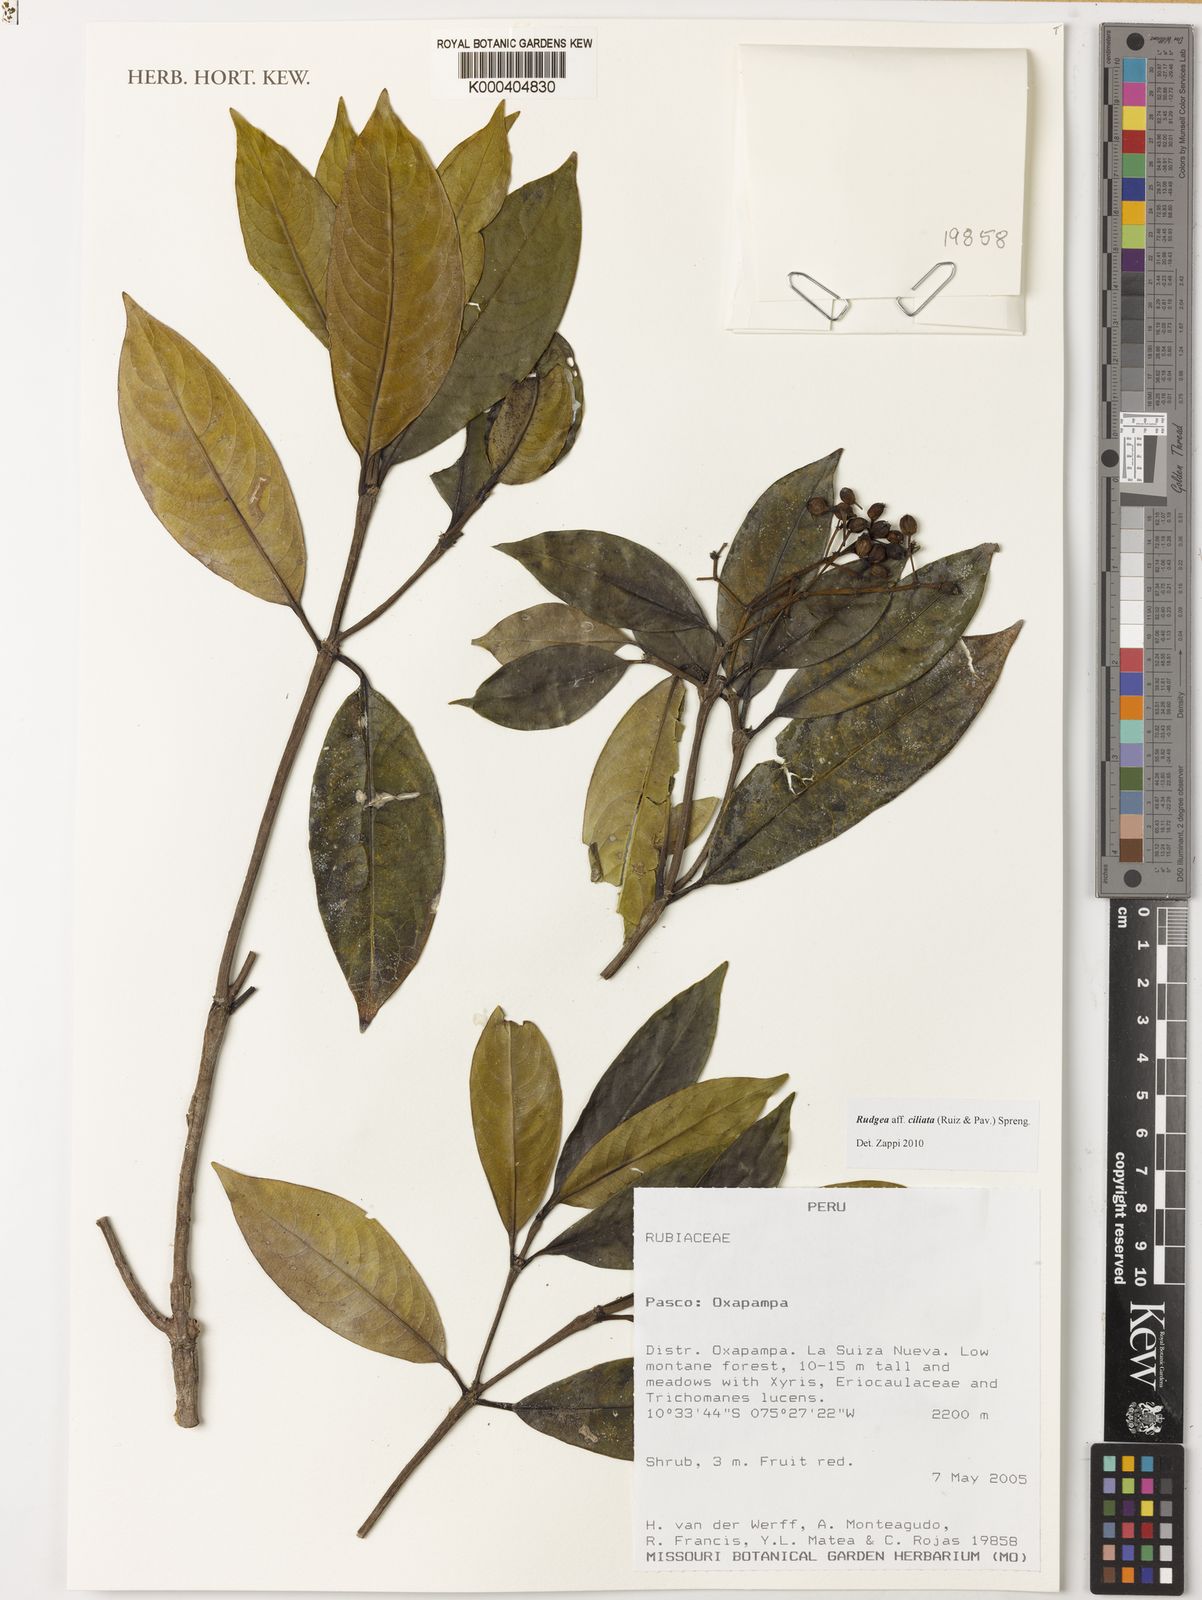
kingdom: Plantae
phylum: Tracheophyta
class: Magnoliopsida
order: Gentianales
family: Rubiaceae
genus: Rudgea
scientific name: Rudgea ciliata
